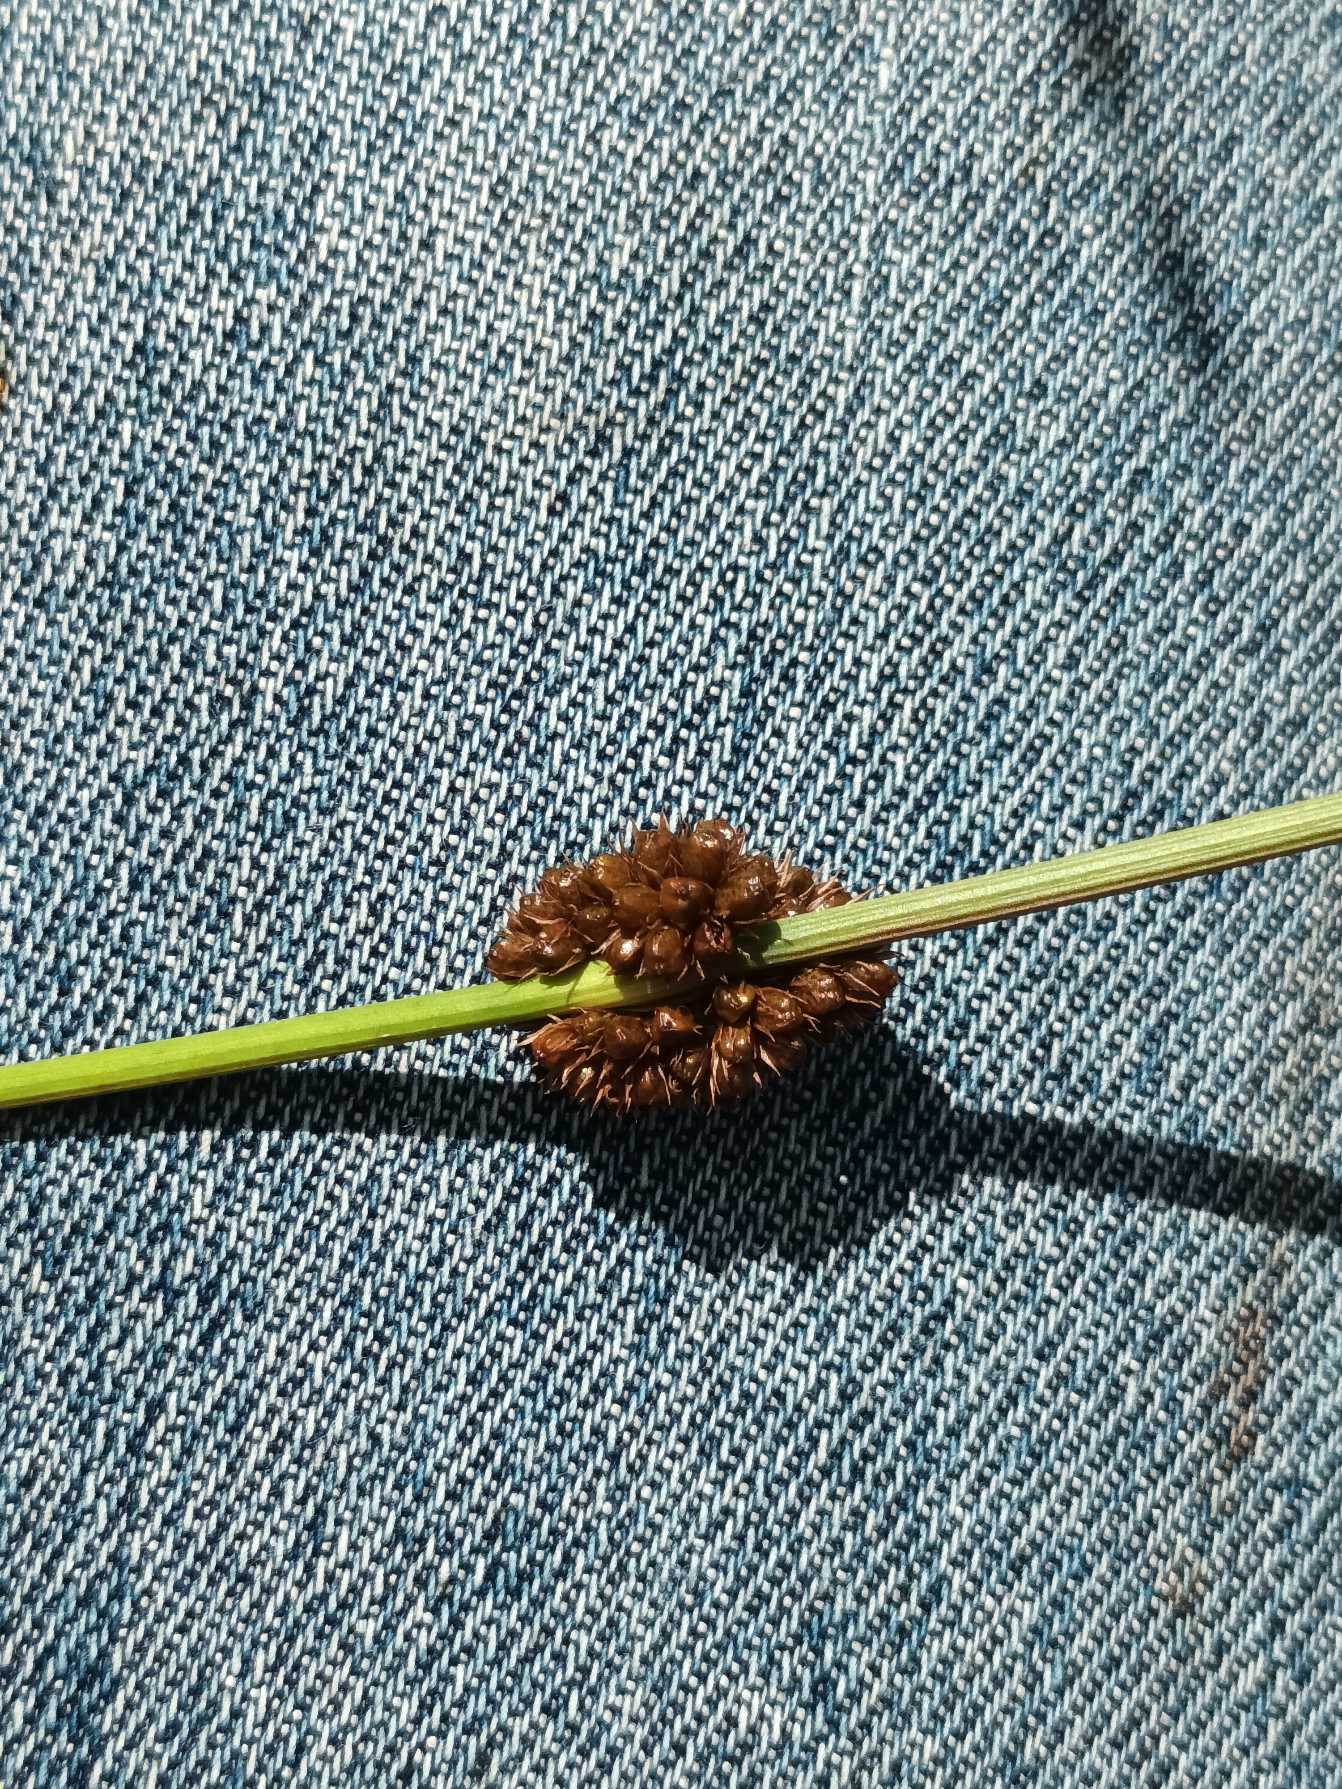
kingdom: Plantae
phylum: Tracheophyta
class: Liliopsida
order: Poales
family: Juncaceae
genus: Juncus
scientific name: Juncus conglomeratus
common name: Knop-siv
